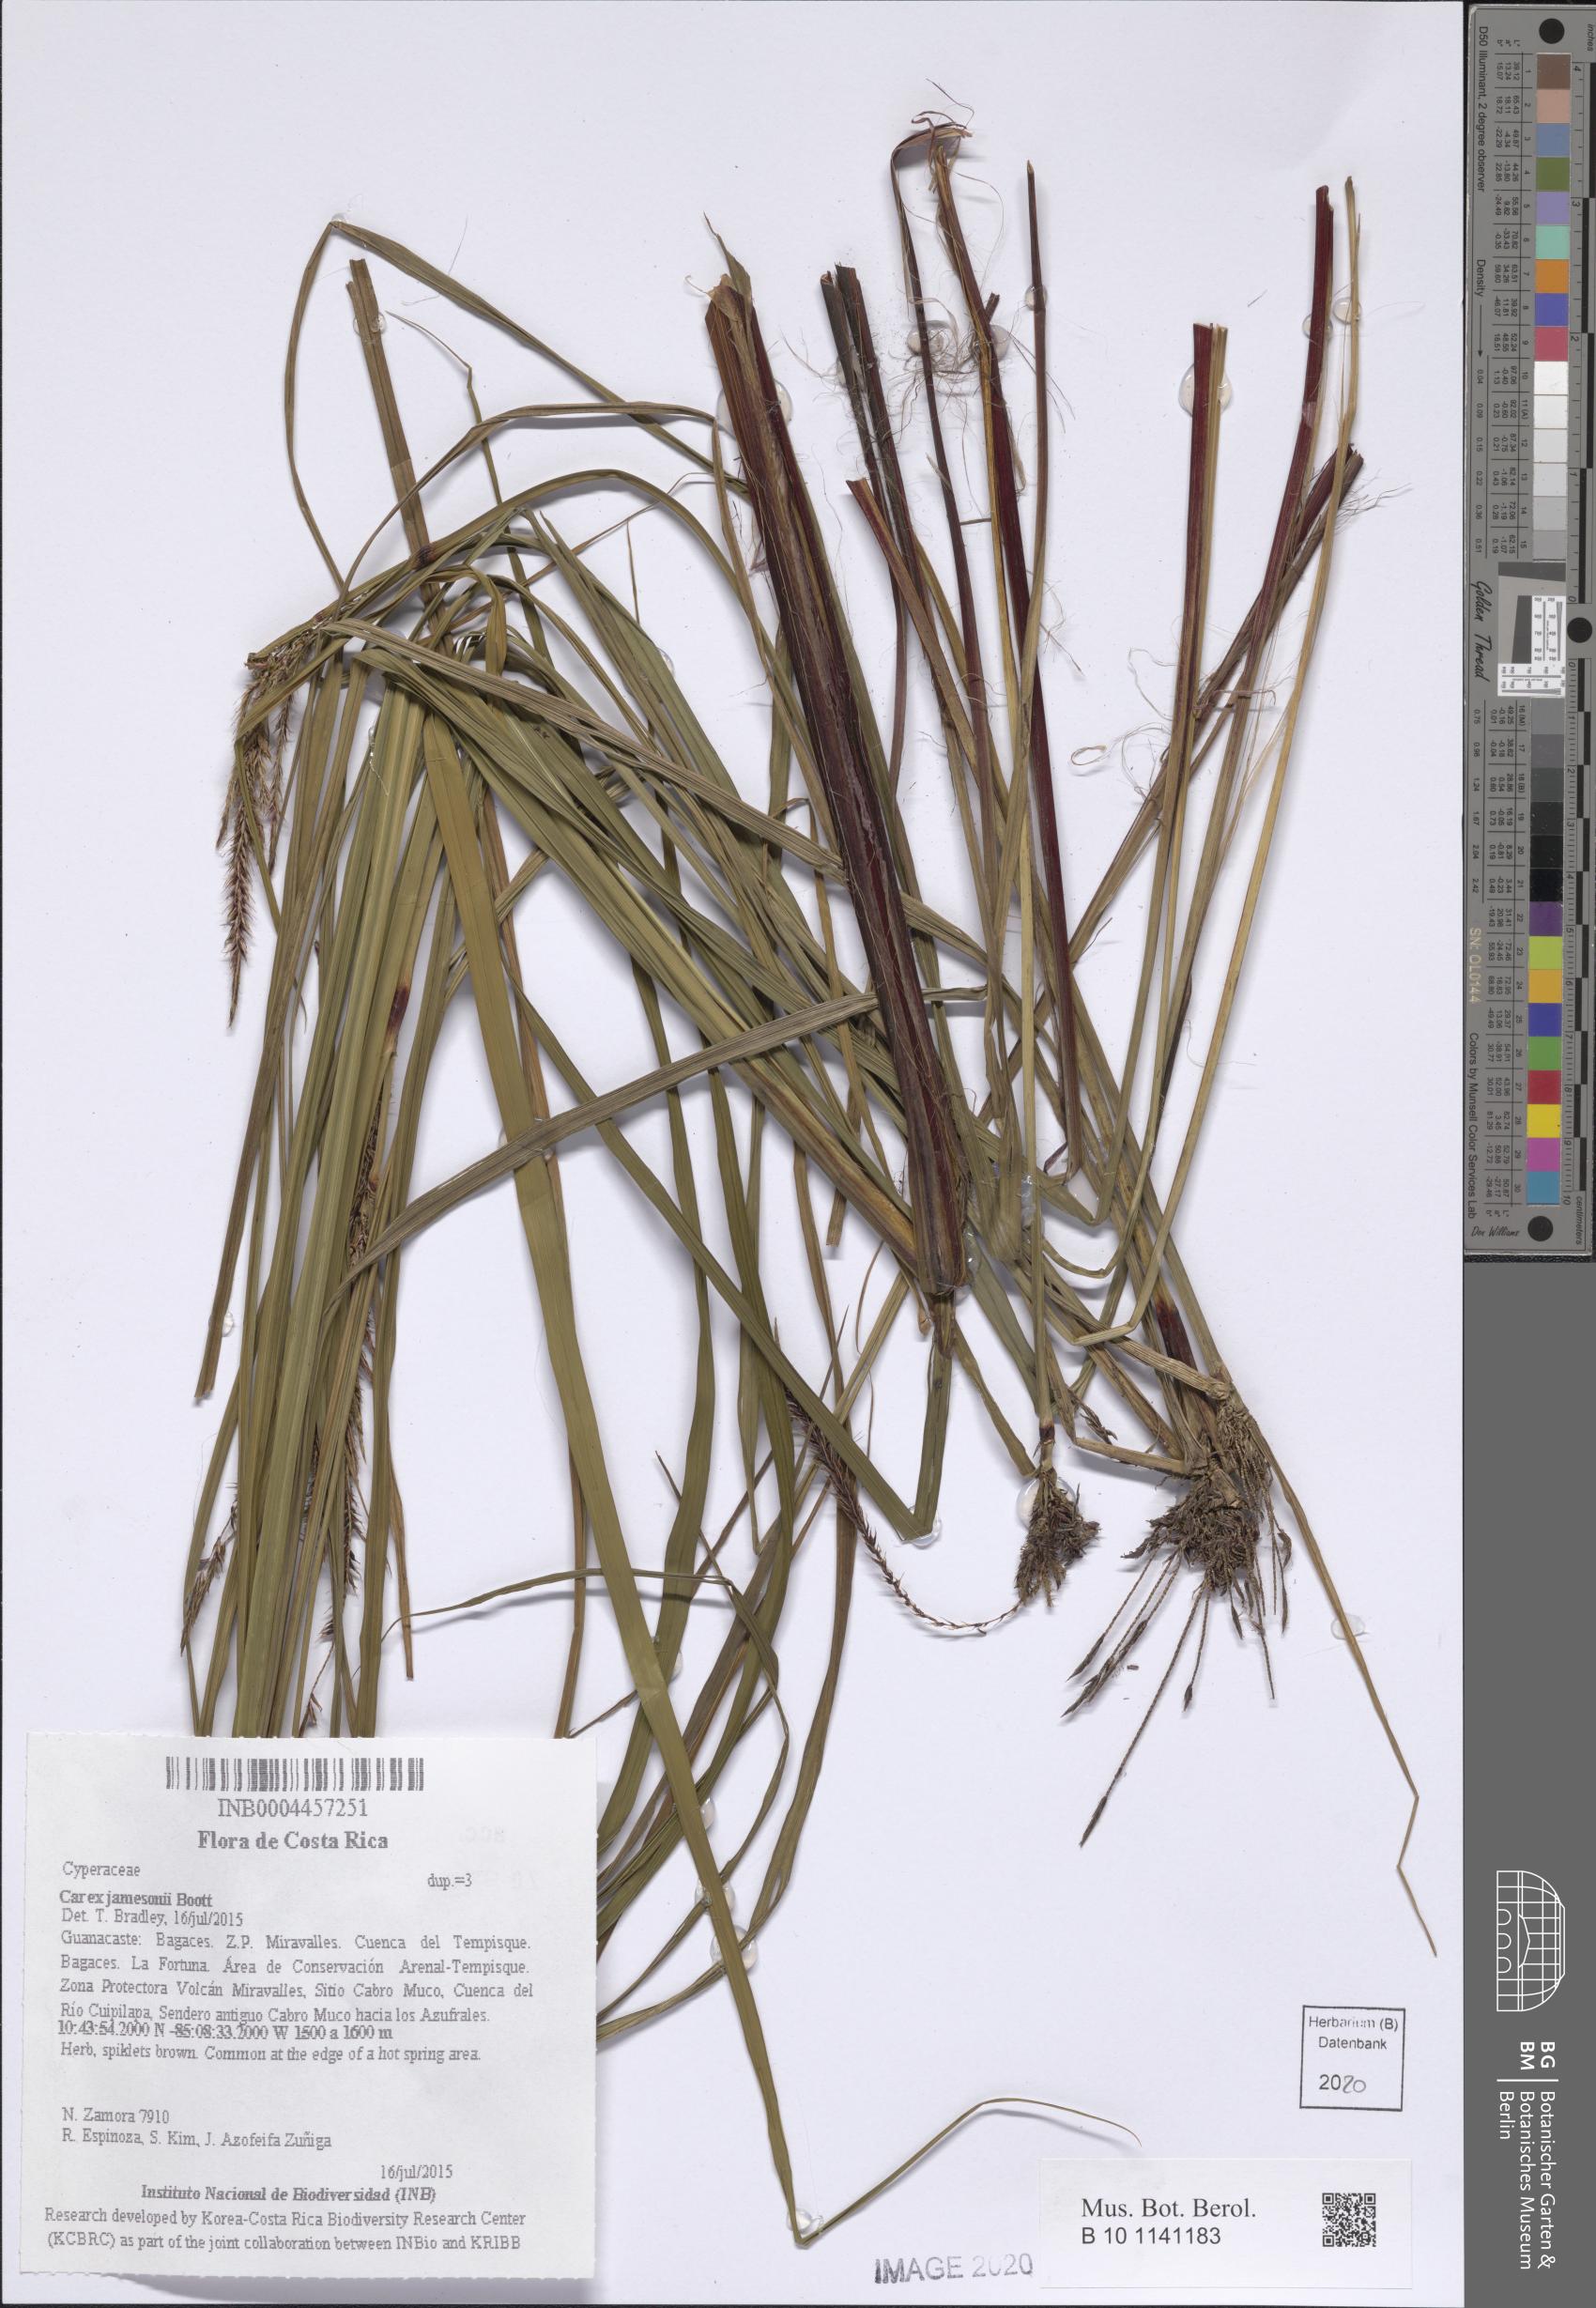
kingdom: Plantae
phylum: Tracheophyta
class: Liliopsida
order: Poales
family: Cyperaceae
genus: Carex
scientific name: Carex jamesonii
